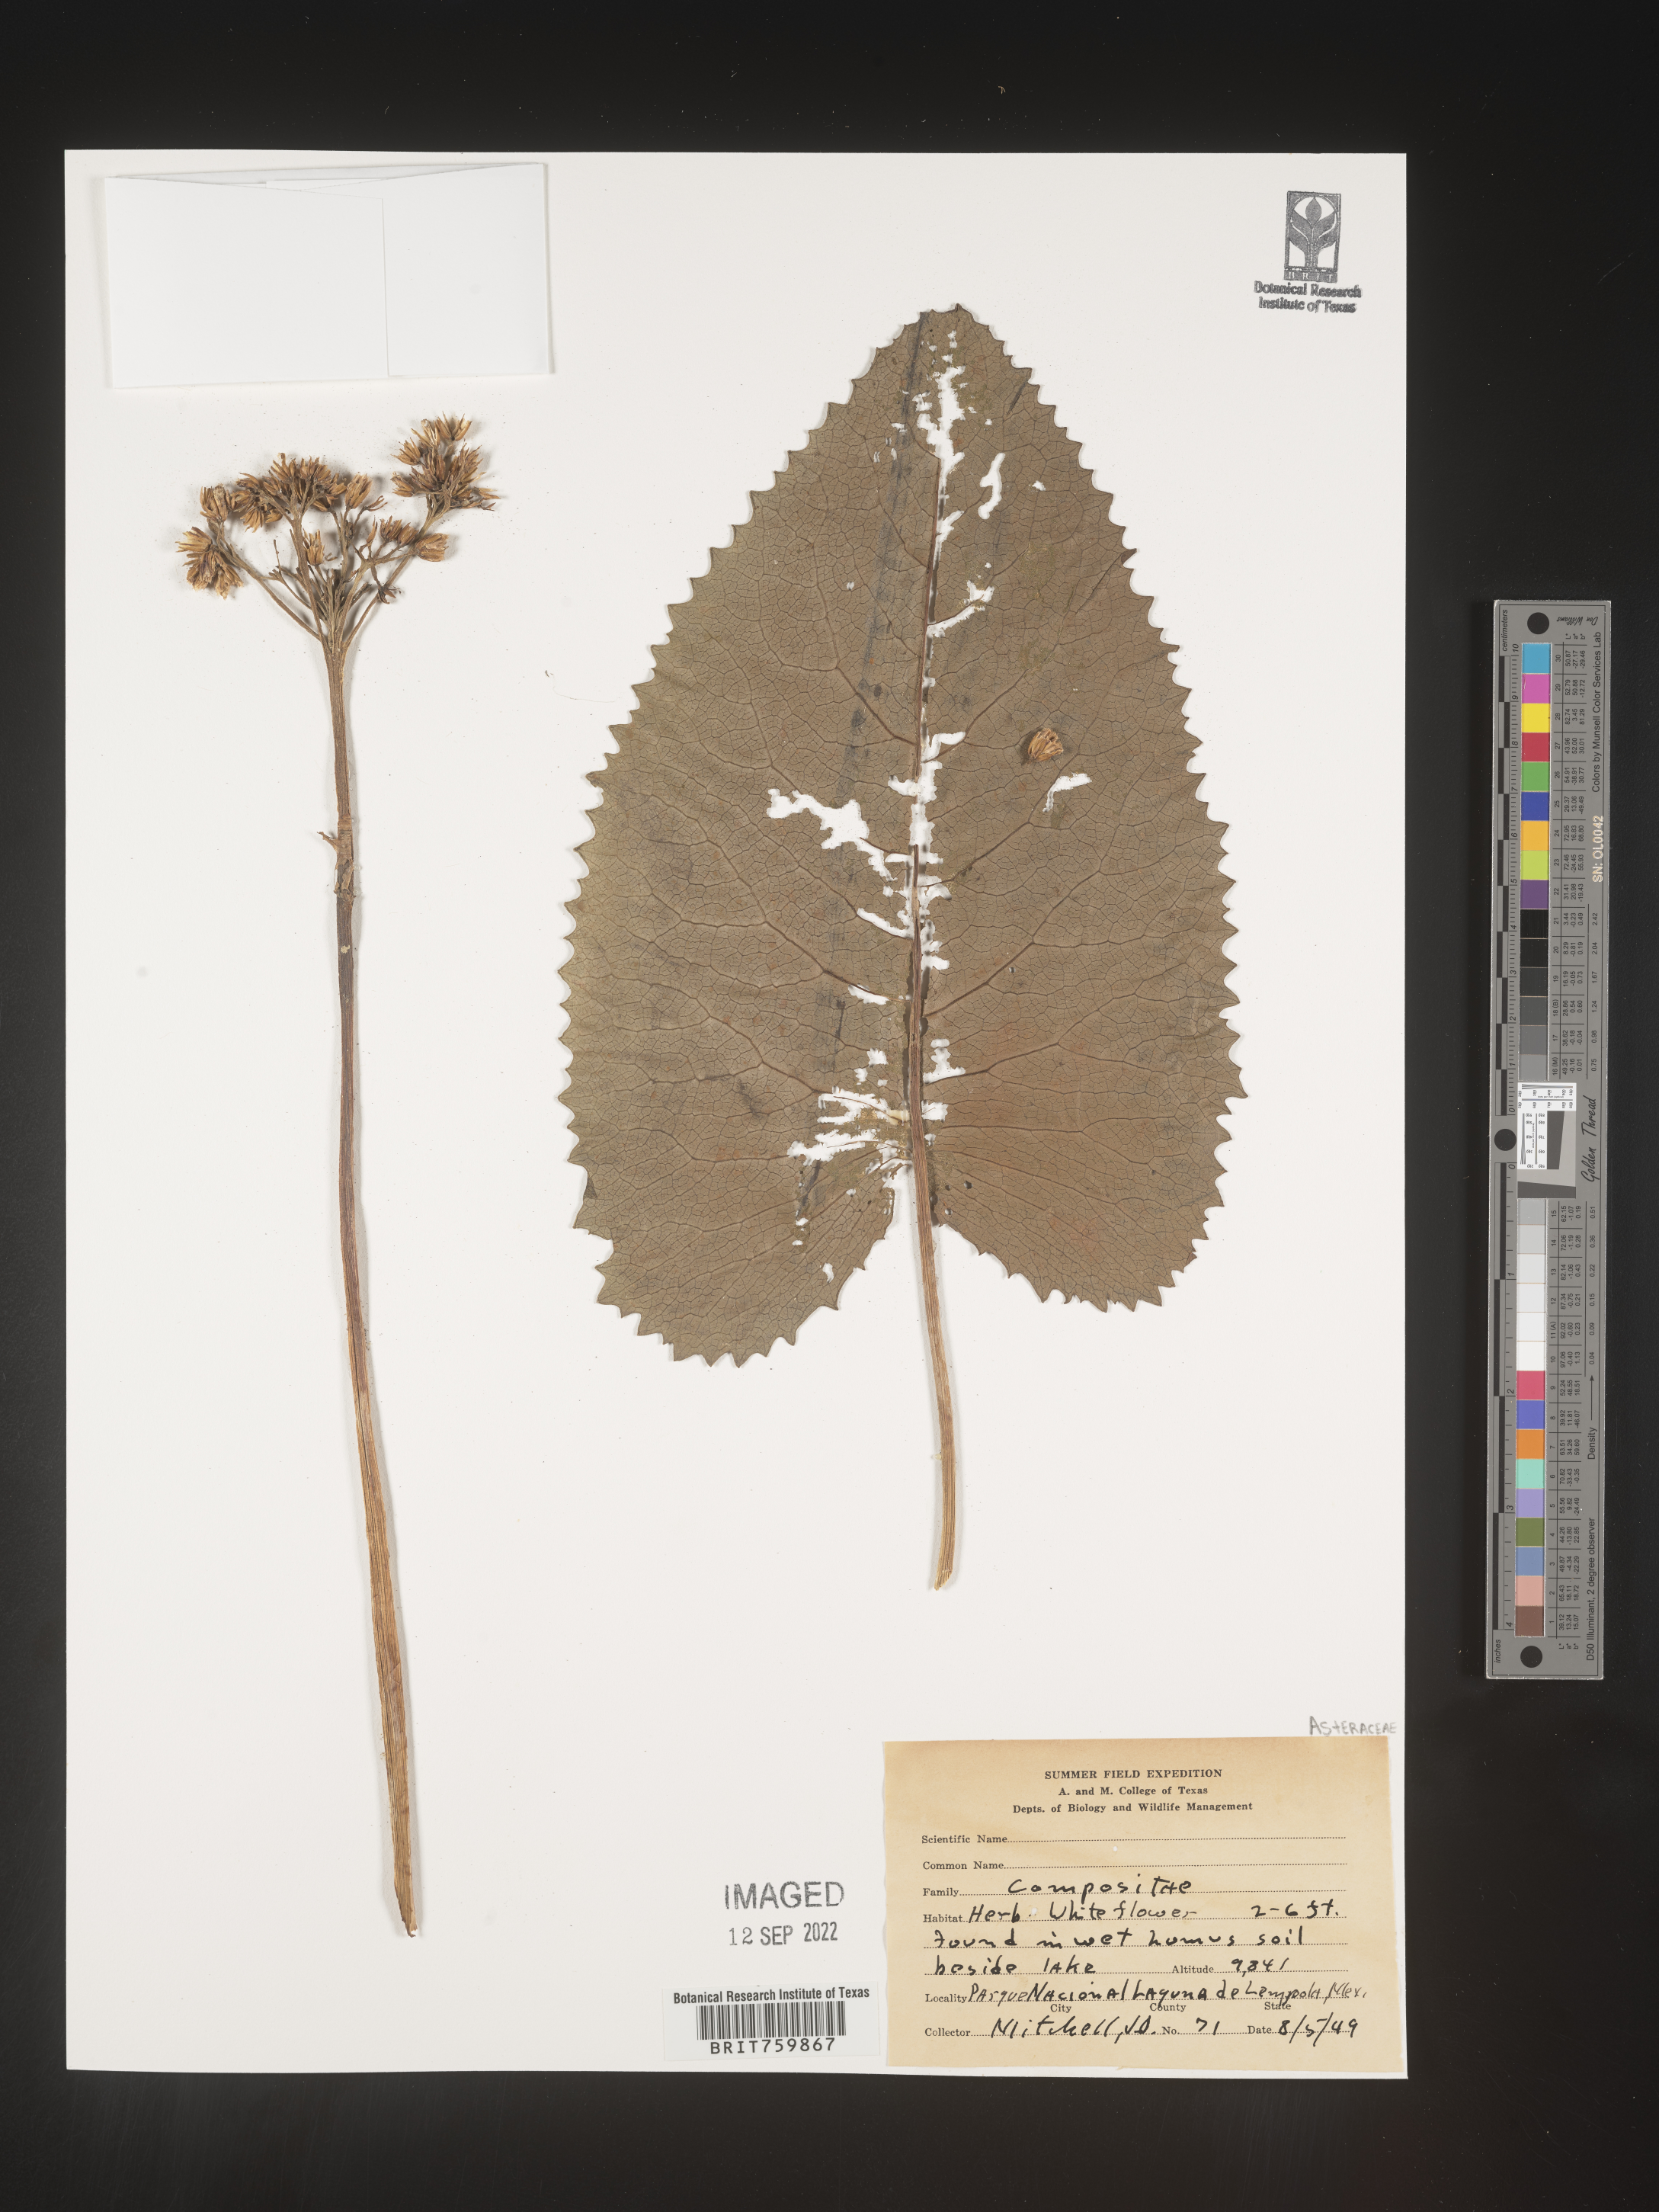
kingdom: Plantae
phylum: Tracheophyta
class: Magnoliopsida
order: Asterales
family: Asteraceae
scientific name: Asteraceae
